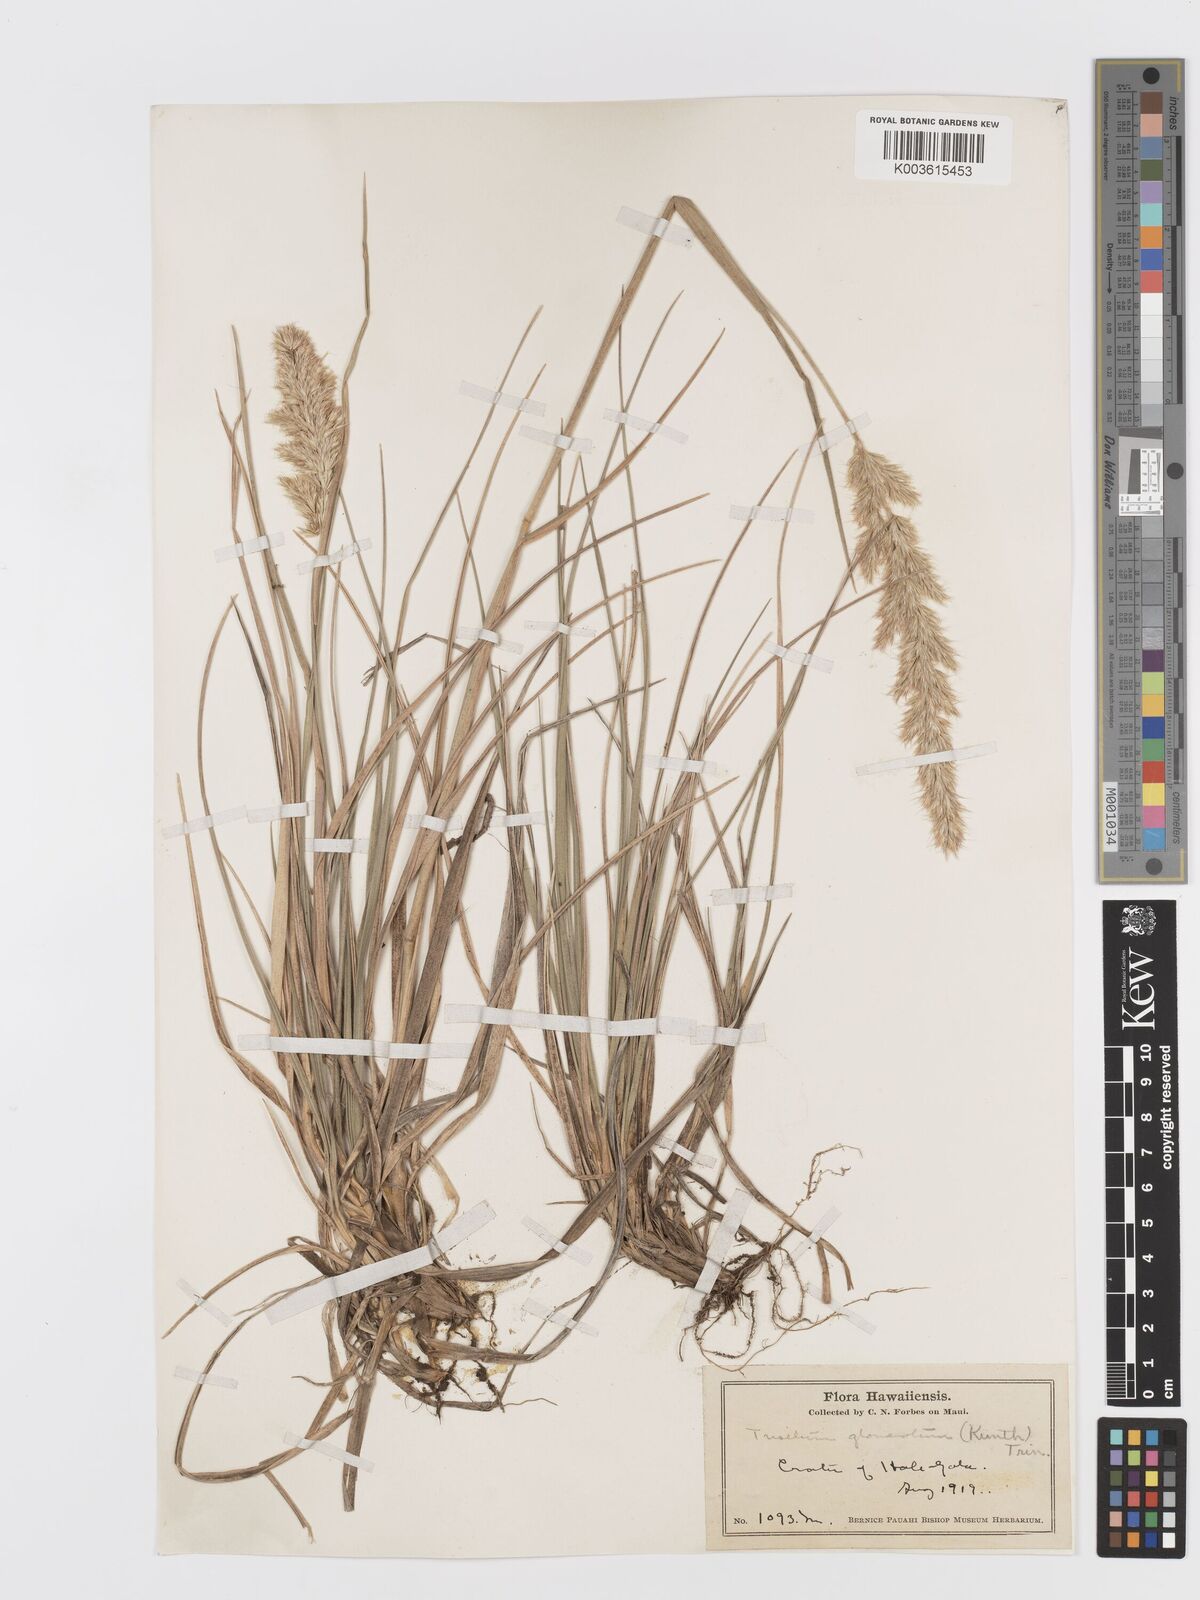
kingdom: Plantae
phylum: Tracheophyta
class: Liliopsida
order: Poales
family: Poaceae
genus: Trisetum
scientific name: Trisetum glomeratum
